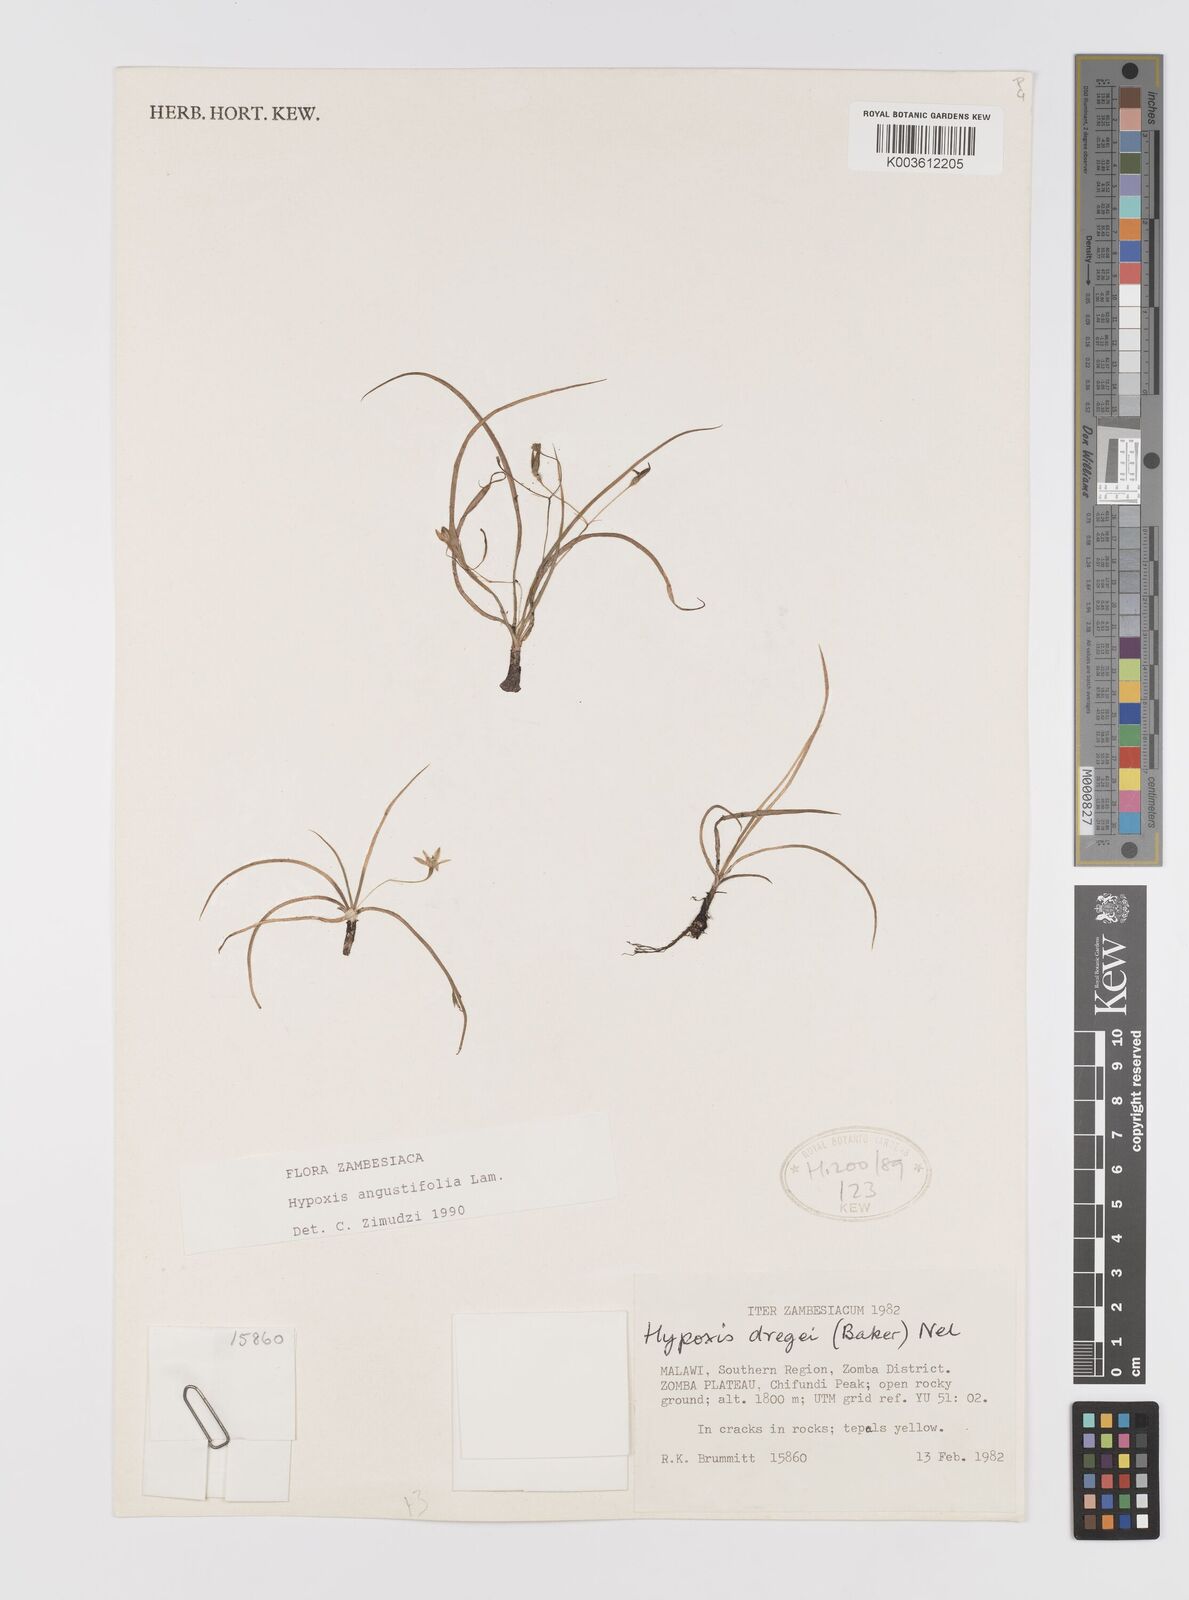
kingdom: Plantae
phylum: Tracheophyta
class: Liliopsida
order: Asparagales
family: Hypoxidaceae
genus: Hypoxis
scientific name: Hypoxis angustifolia
